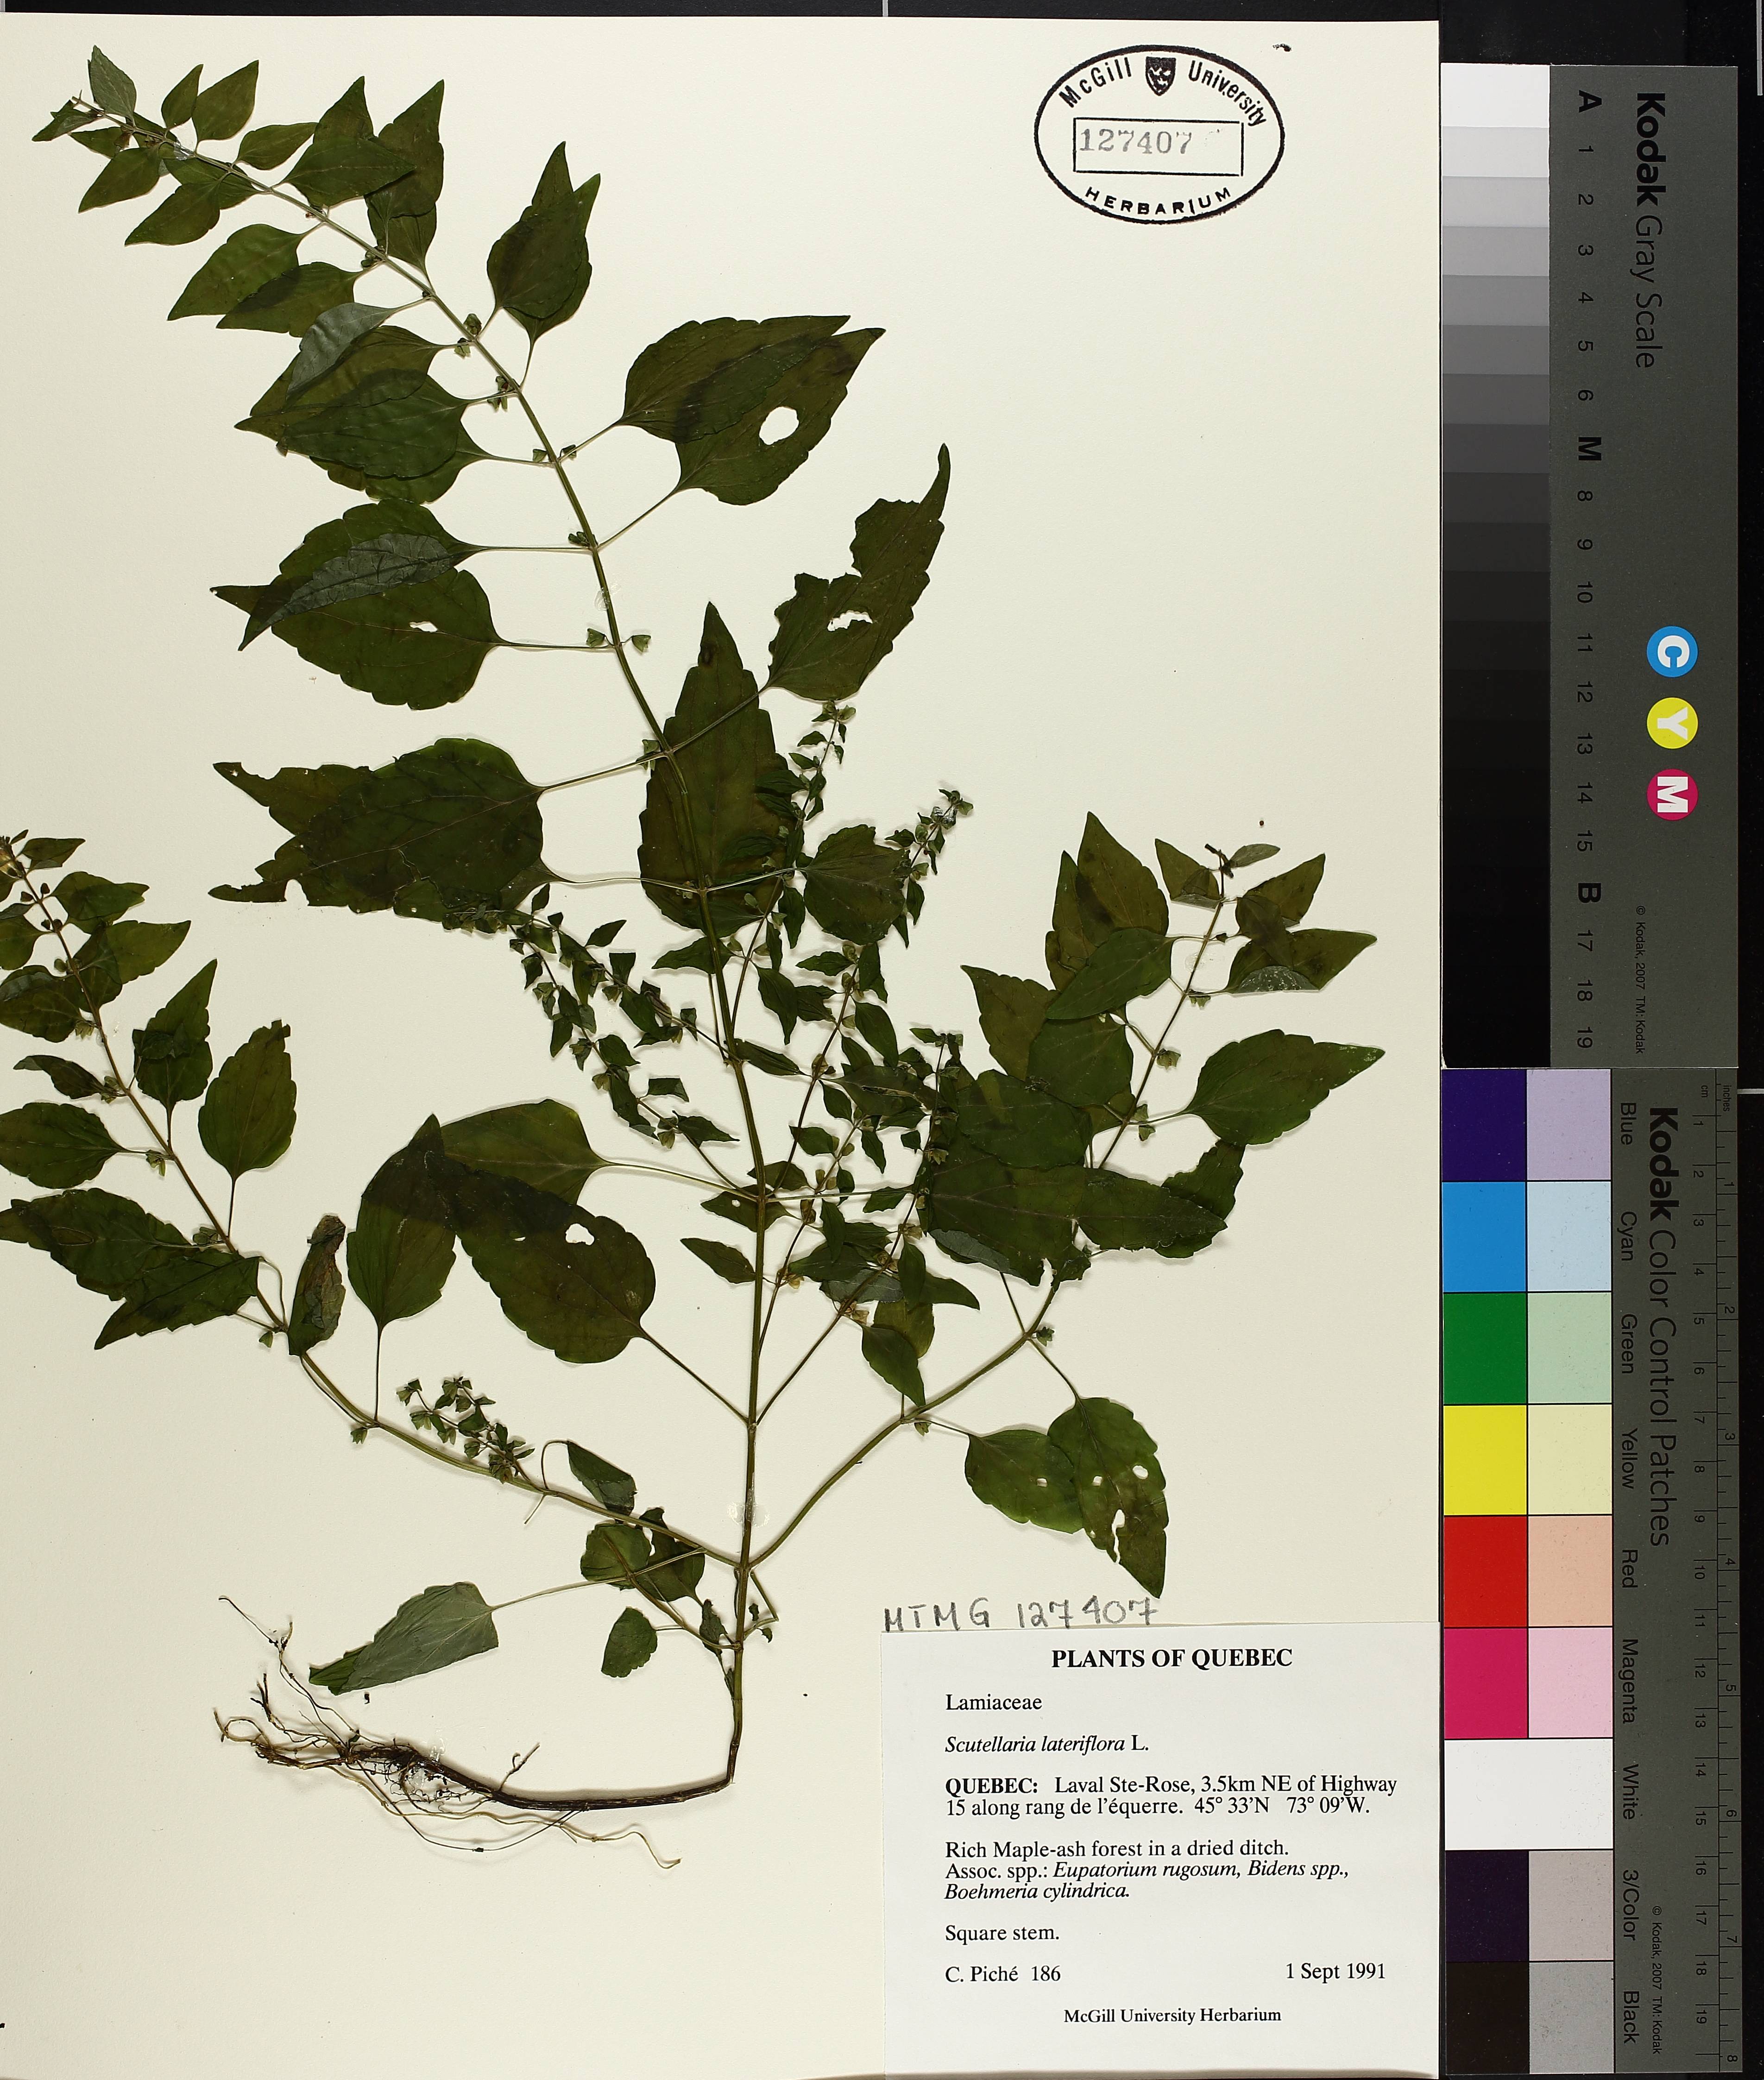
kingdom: Plantae
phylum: Tracheophyta
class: Magnoliopsida
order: Lamiales
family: Lamiaceae
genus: Scutellaria
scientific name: Scutellaria lateriflora
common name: Blue skullcap
